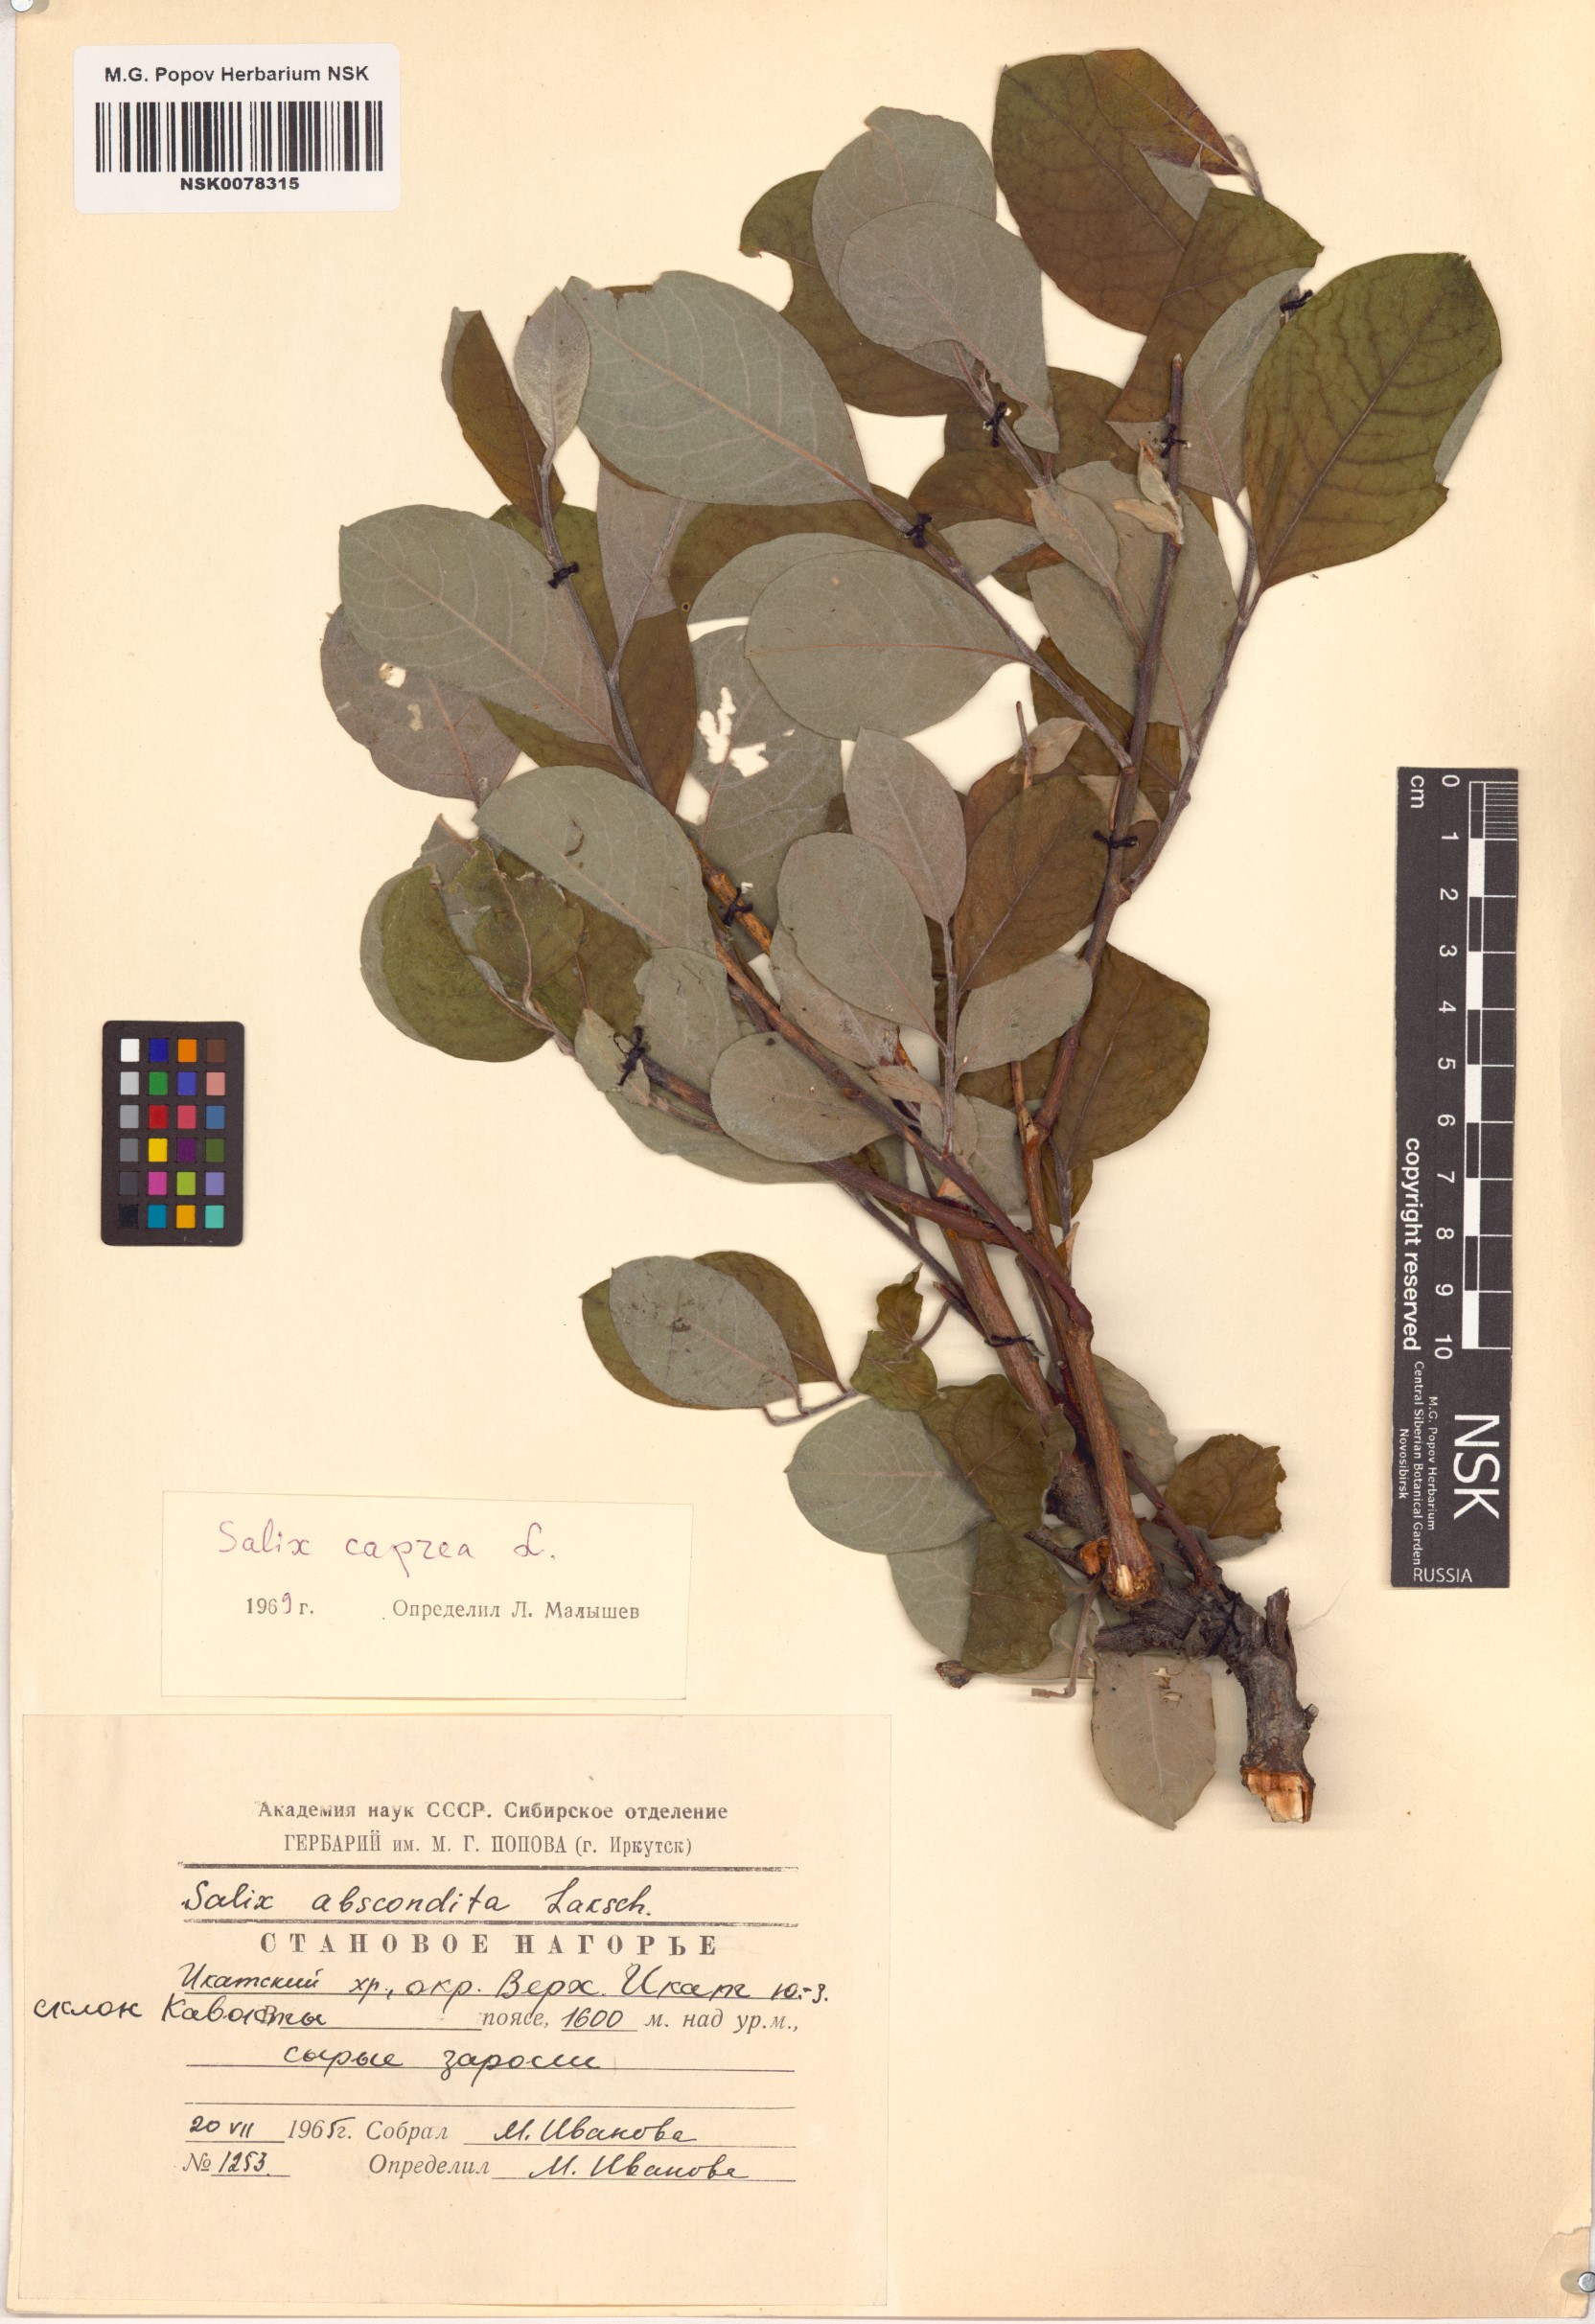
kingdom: Plantae
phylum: Tracheophyta
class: Magnoliopsida
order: Malpighiales
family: Salicaceae
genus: Salix
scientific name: Salix caprea
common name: Goat willow
